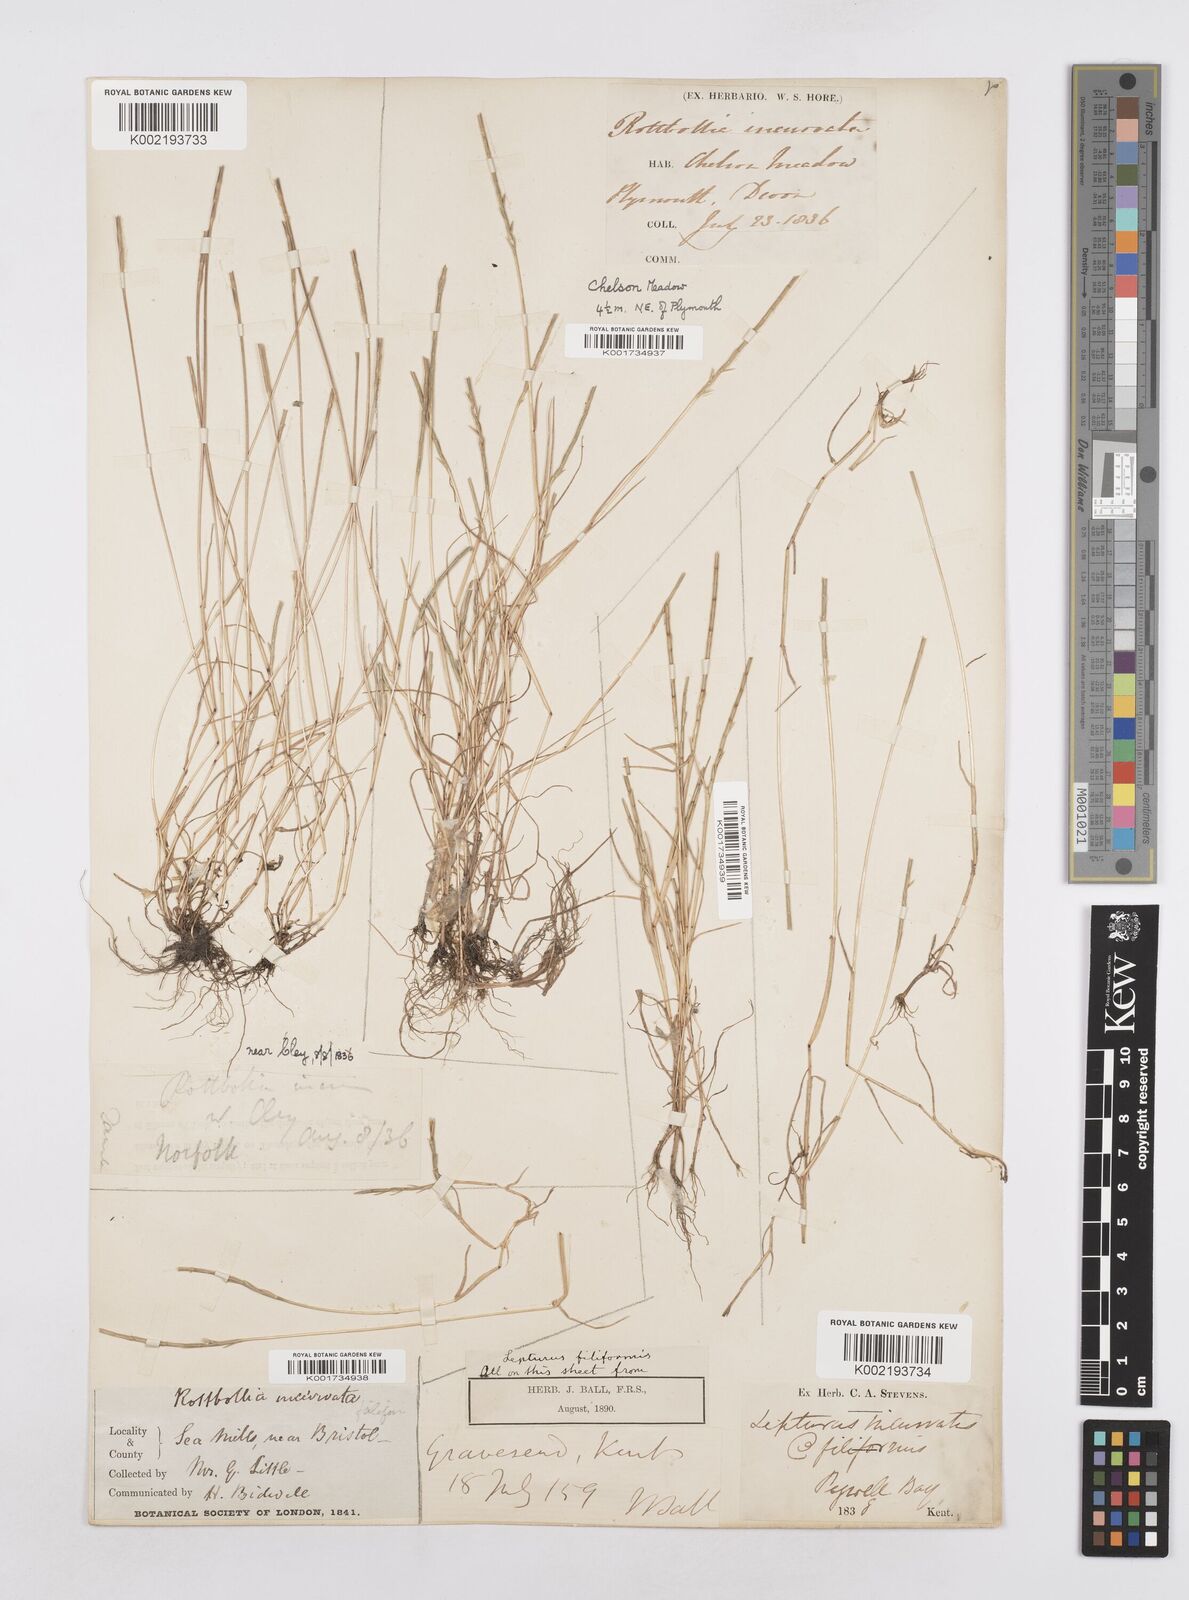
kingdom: Plantae
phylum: Tracheophyta
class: Liliopsida
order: Poales
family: Poaceae
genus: Parapholis
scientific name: Parapholis strigosa
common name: Hard-grass
